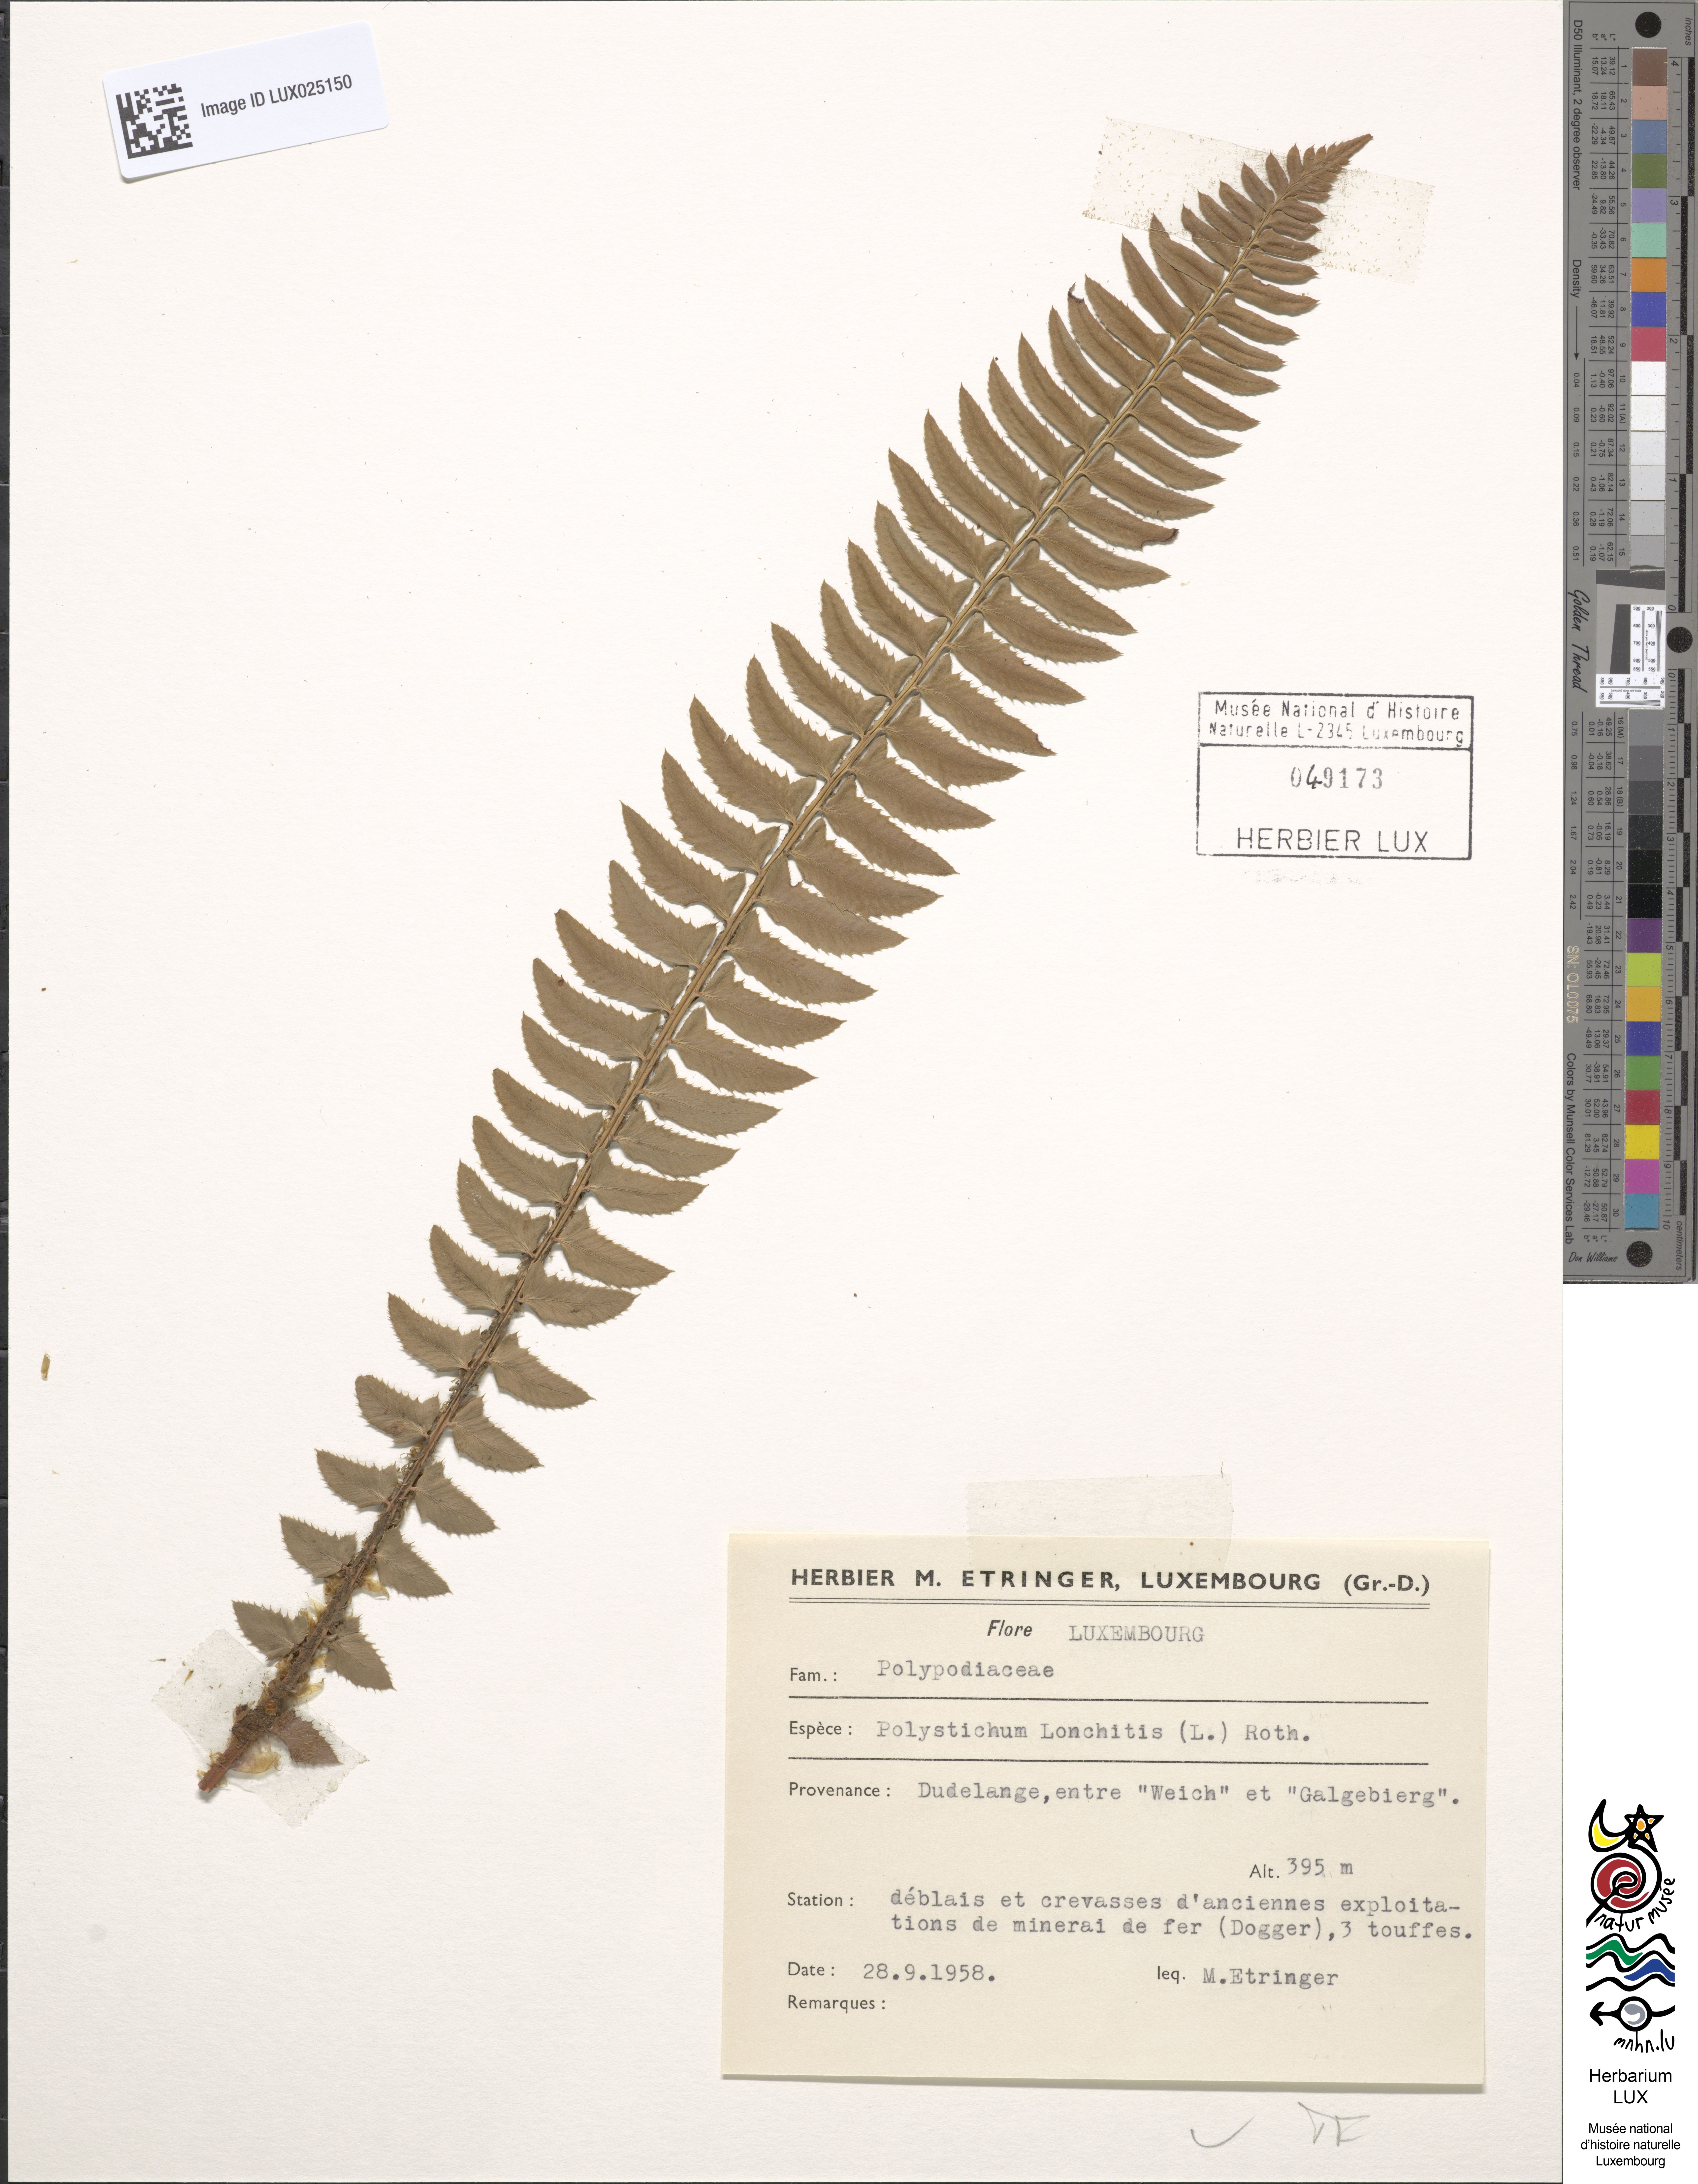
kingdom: Plantae
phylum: Tracheophyta
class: Polypodiopsida
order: Polypodiales
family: Dryopteridaceae
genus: Polystichum
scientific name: Polystichum aculeatum
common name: Hard shield-fern
